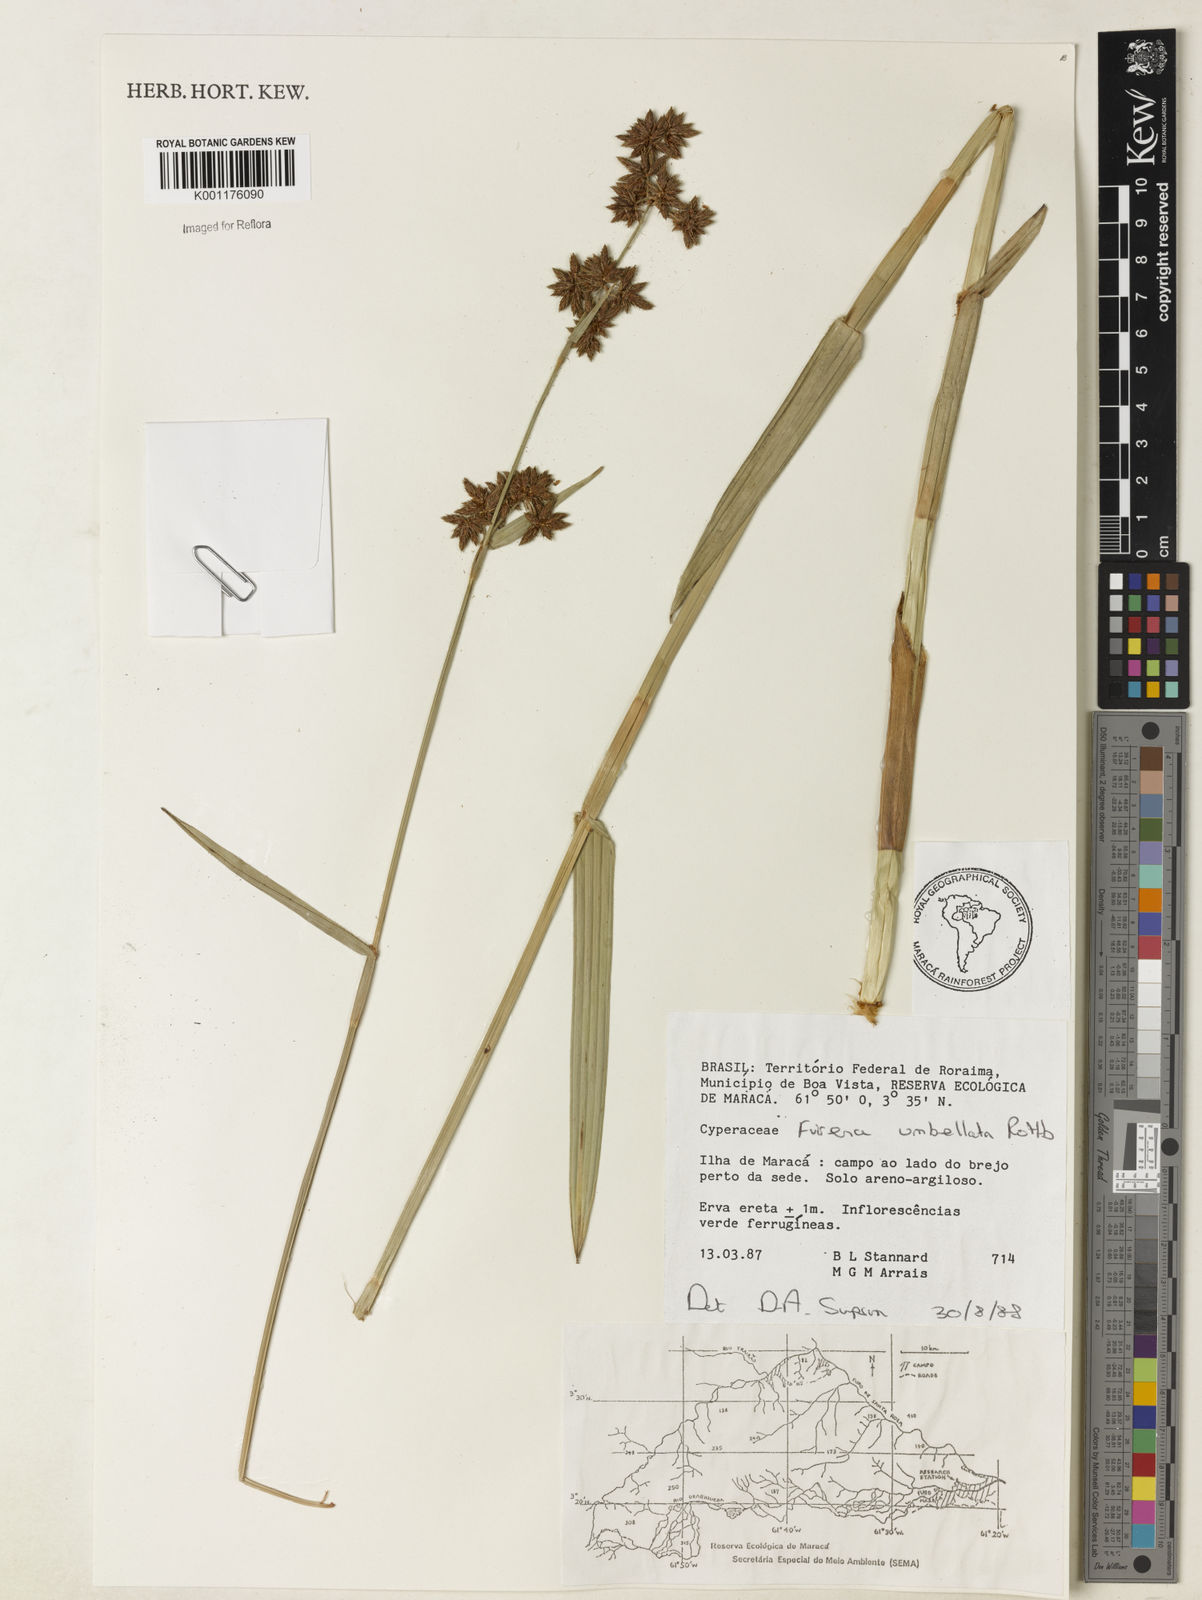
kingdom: Plantae
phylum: Tracheophyta
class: Liliopsida
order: Poales
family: Cyperaceae
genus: Fuirena
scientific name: Fuirena umbellata
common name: Yefen
